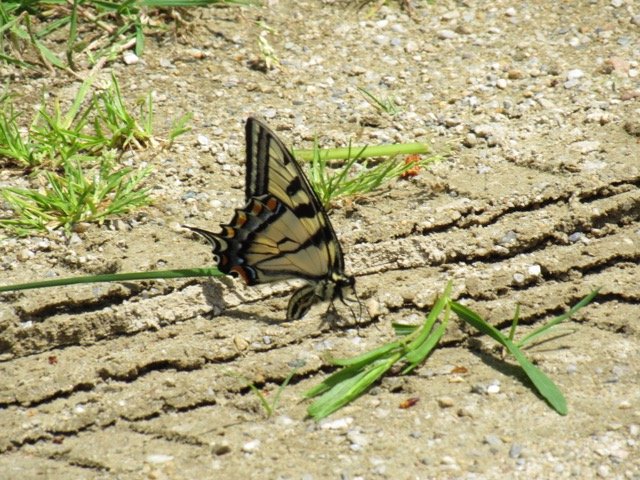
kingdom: Animalia
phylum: Arthropoda
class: Insecta
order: Lepidoptera
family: Papilionidae
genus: Pterourus
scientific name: Pterourus canadensis
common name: Canadian Tiger Swallowtail
